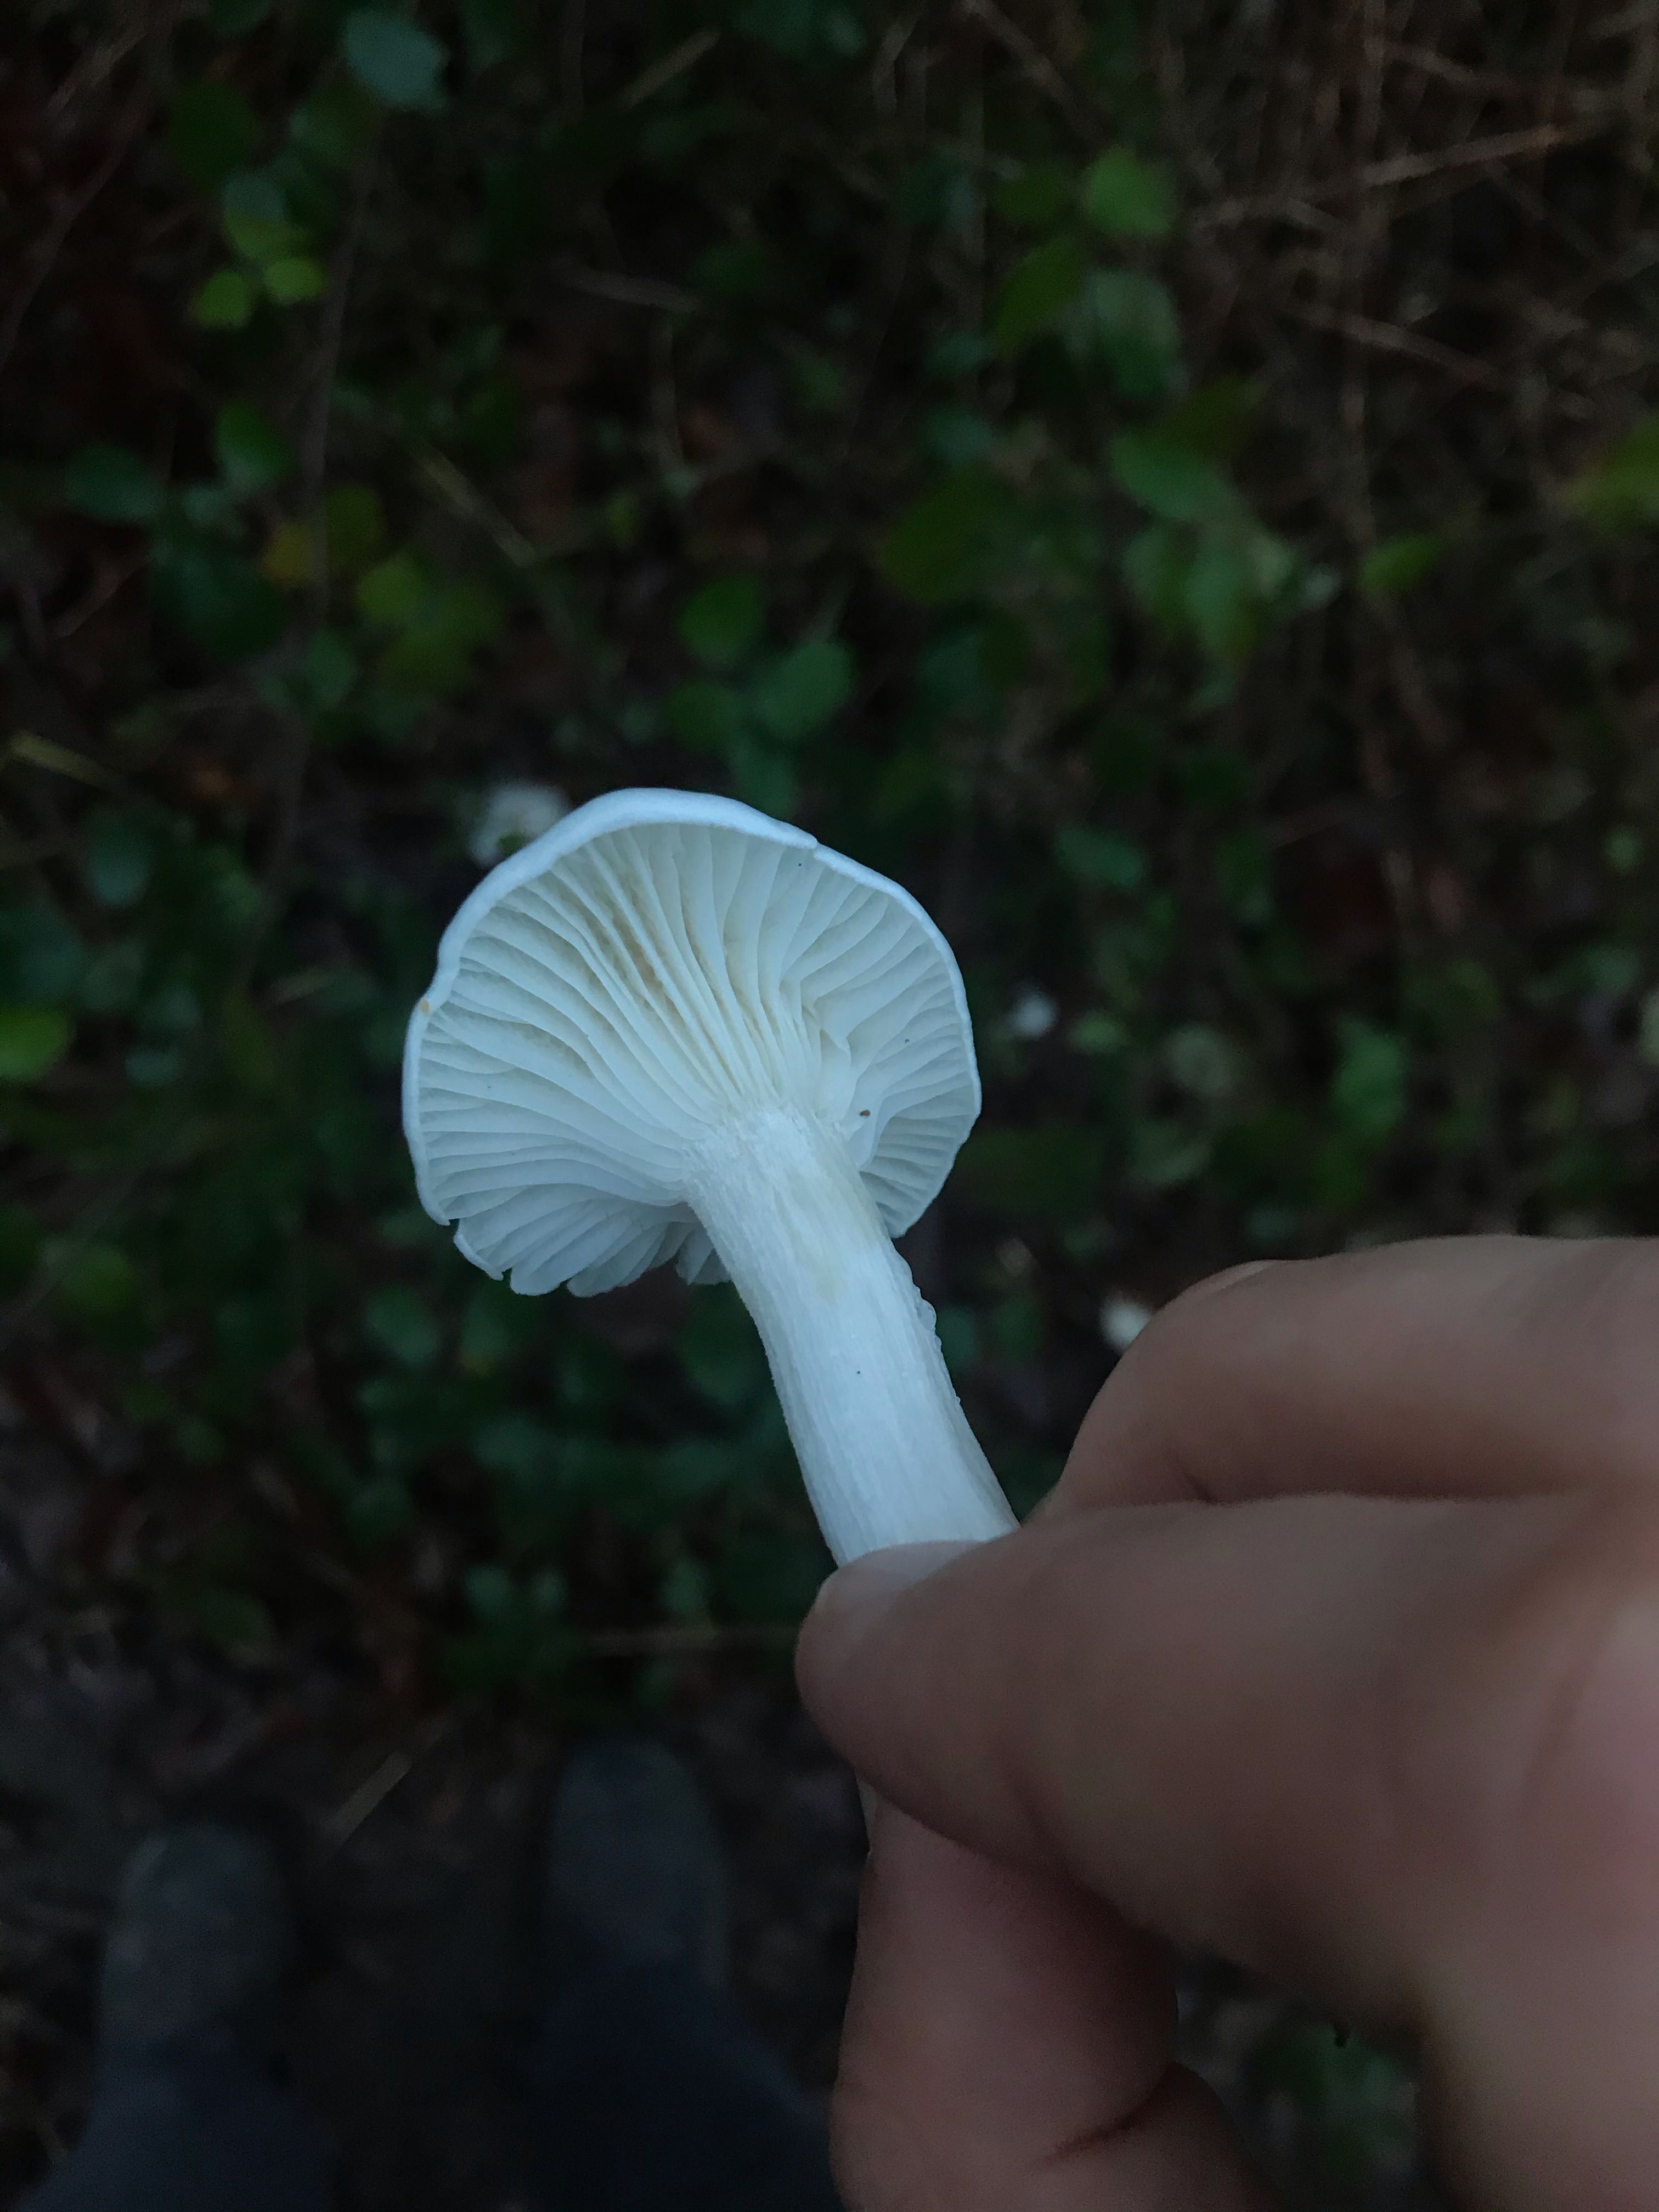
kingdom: Fungi
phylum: Basidiomycota
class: Agaricomycetes
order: Agaricales
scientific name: Agaricales
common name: champignonordenen
